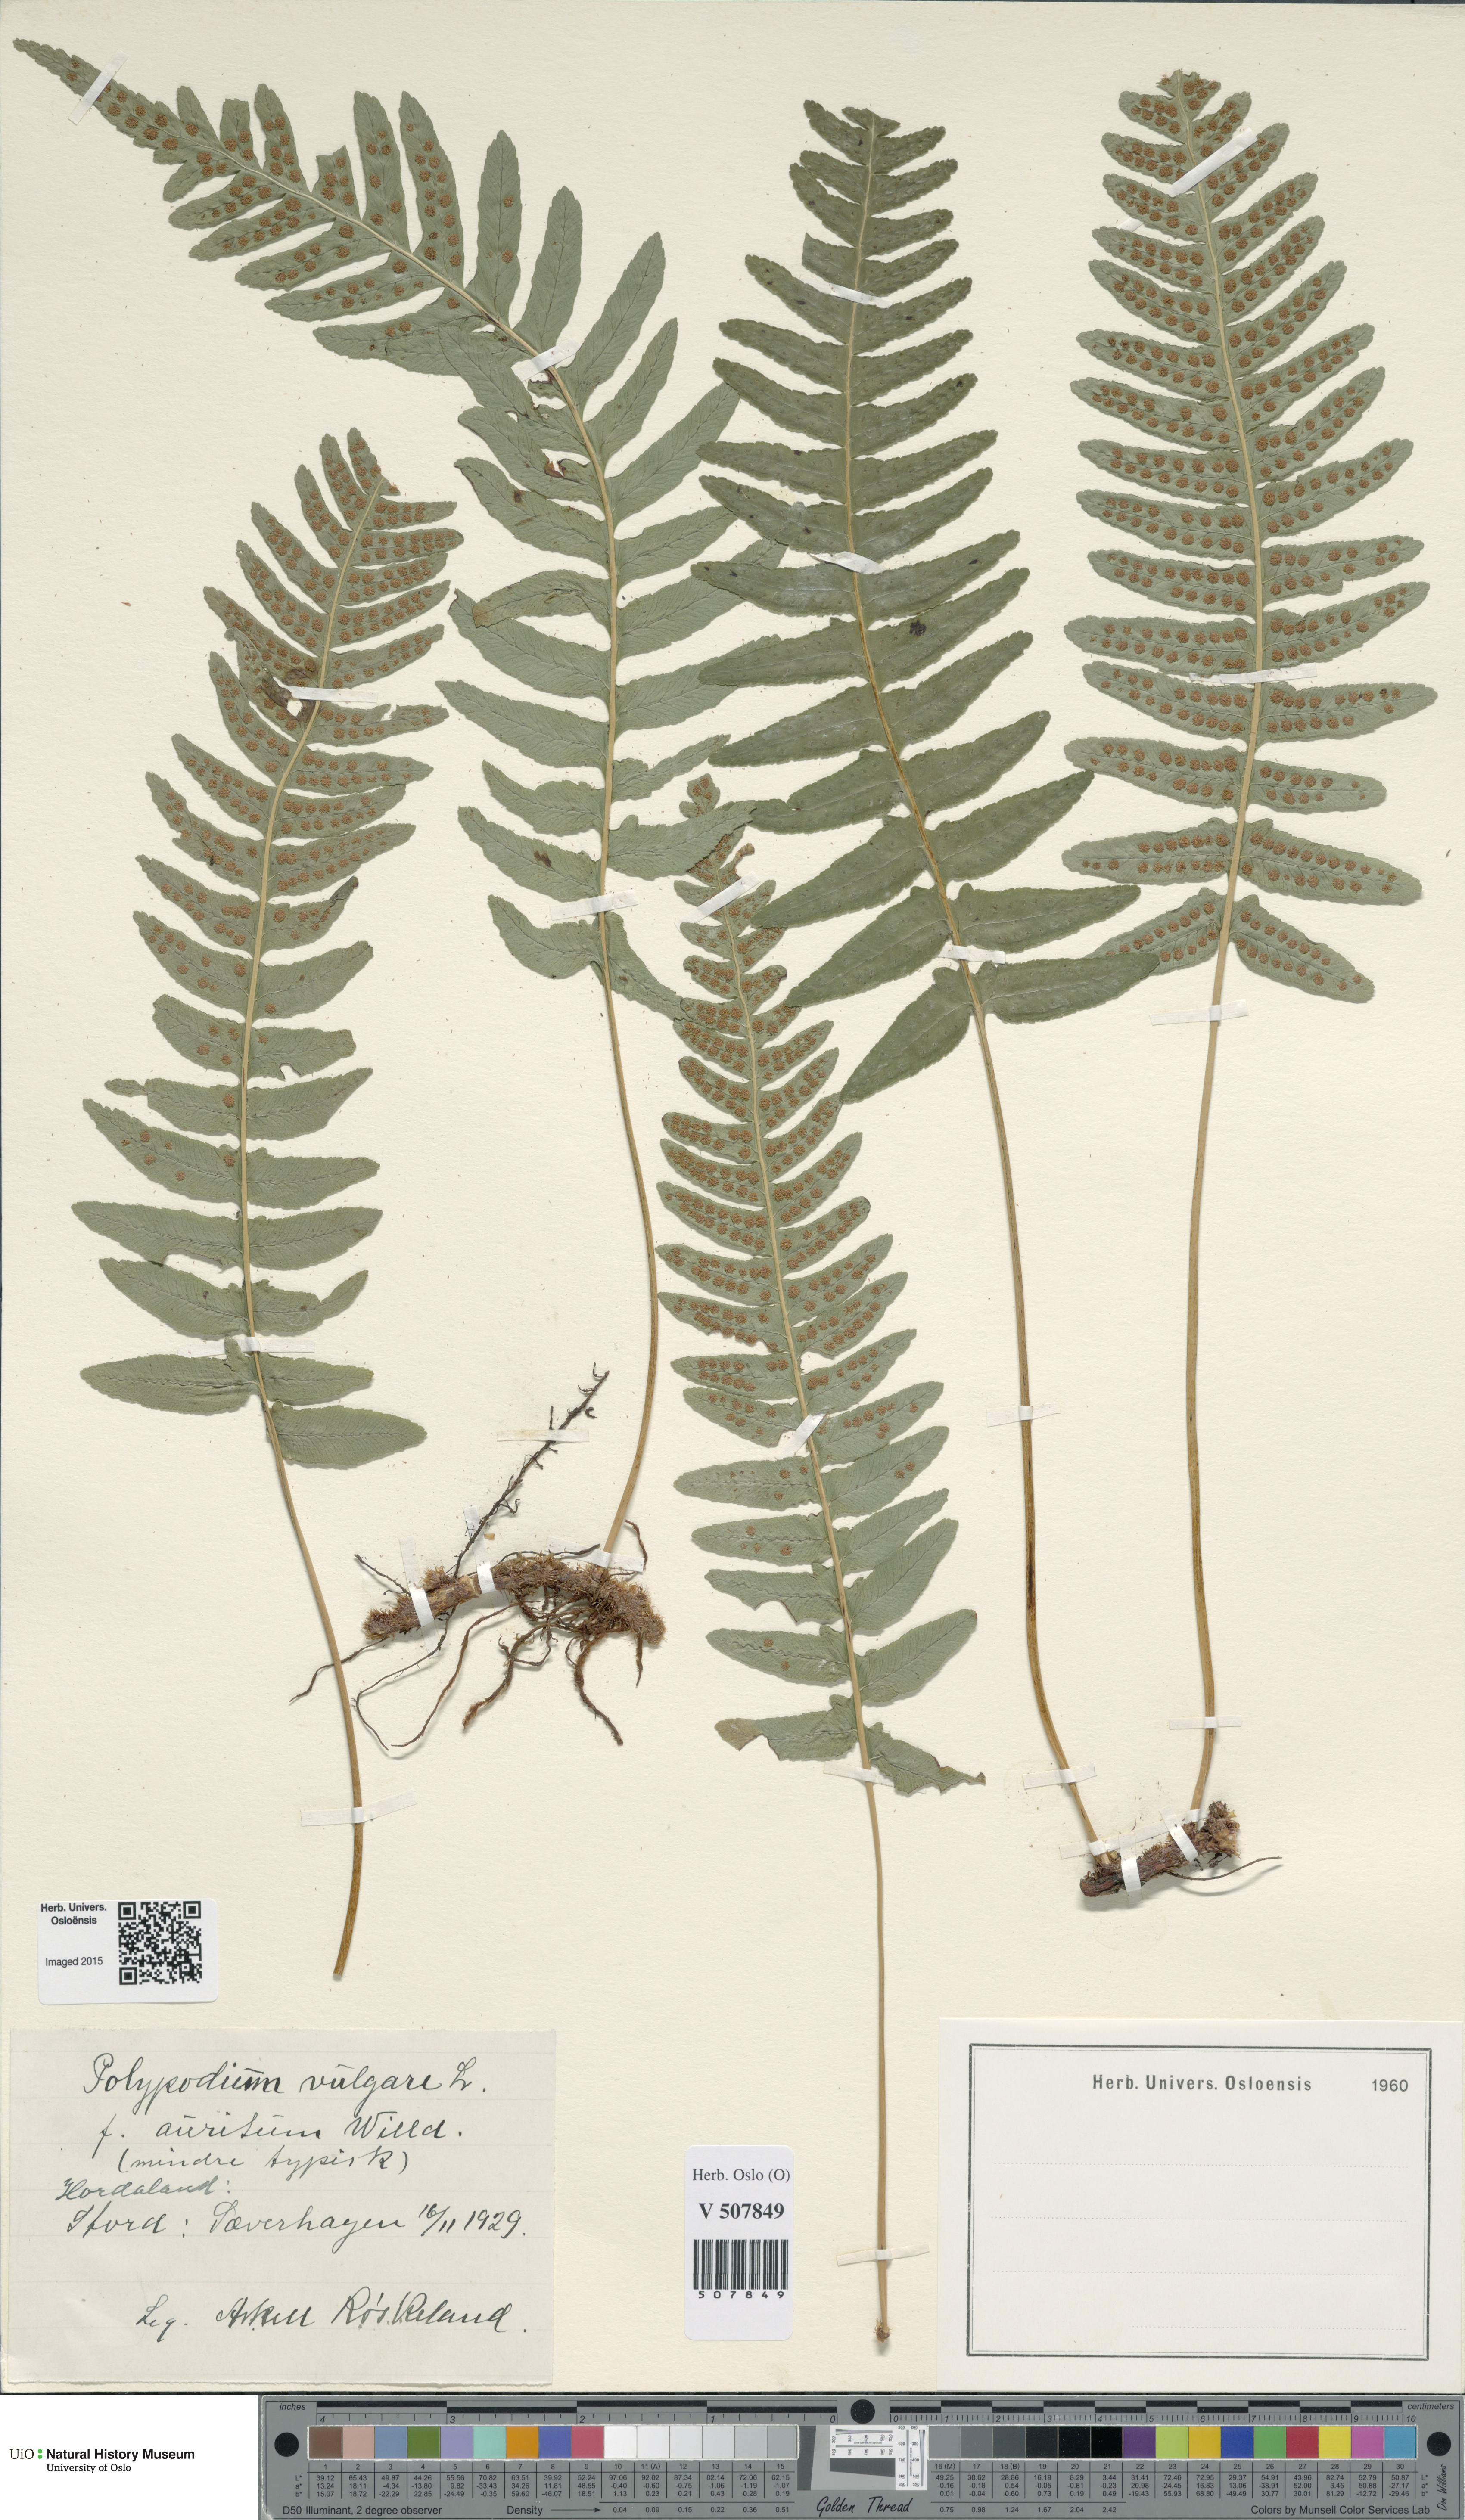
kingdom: Plantae
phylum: Tracheophyta
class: Polypodiopsida
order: Polypodiales
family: Polypodiaceae
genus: Polypodium
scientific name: Polypodium vulgare
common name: Common polypody
